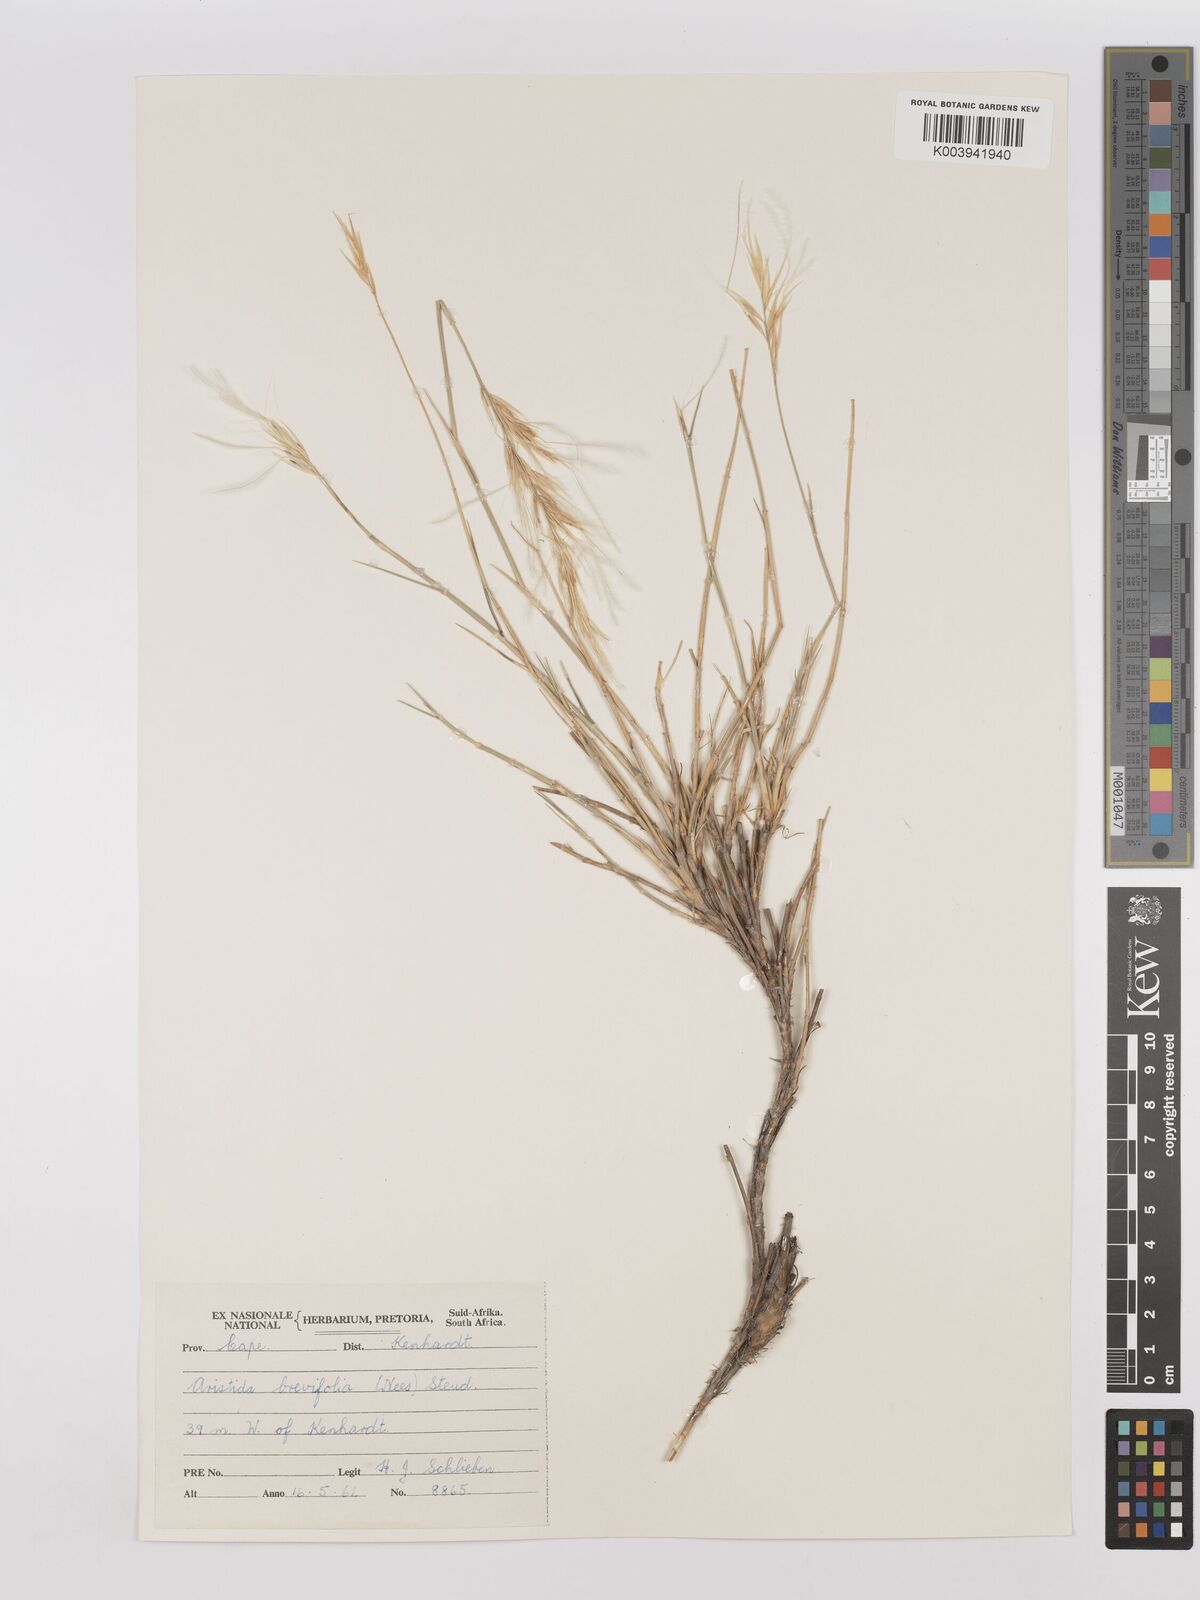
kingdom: Plantae
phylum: Tracheophyta
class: Liliopsida
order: Poales
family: Poaceae
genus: Stipagrostis
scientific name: Stipagrostis brevifolia
